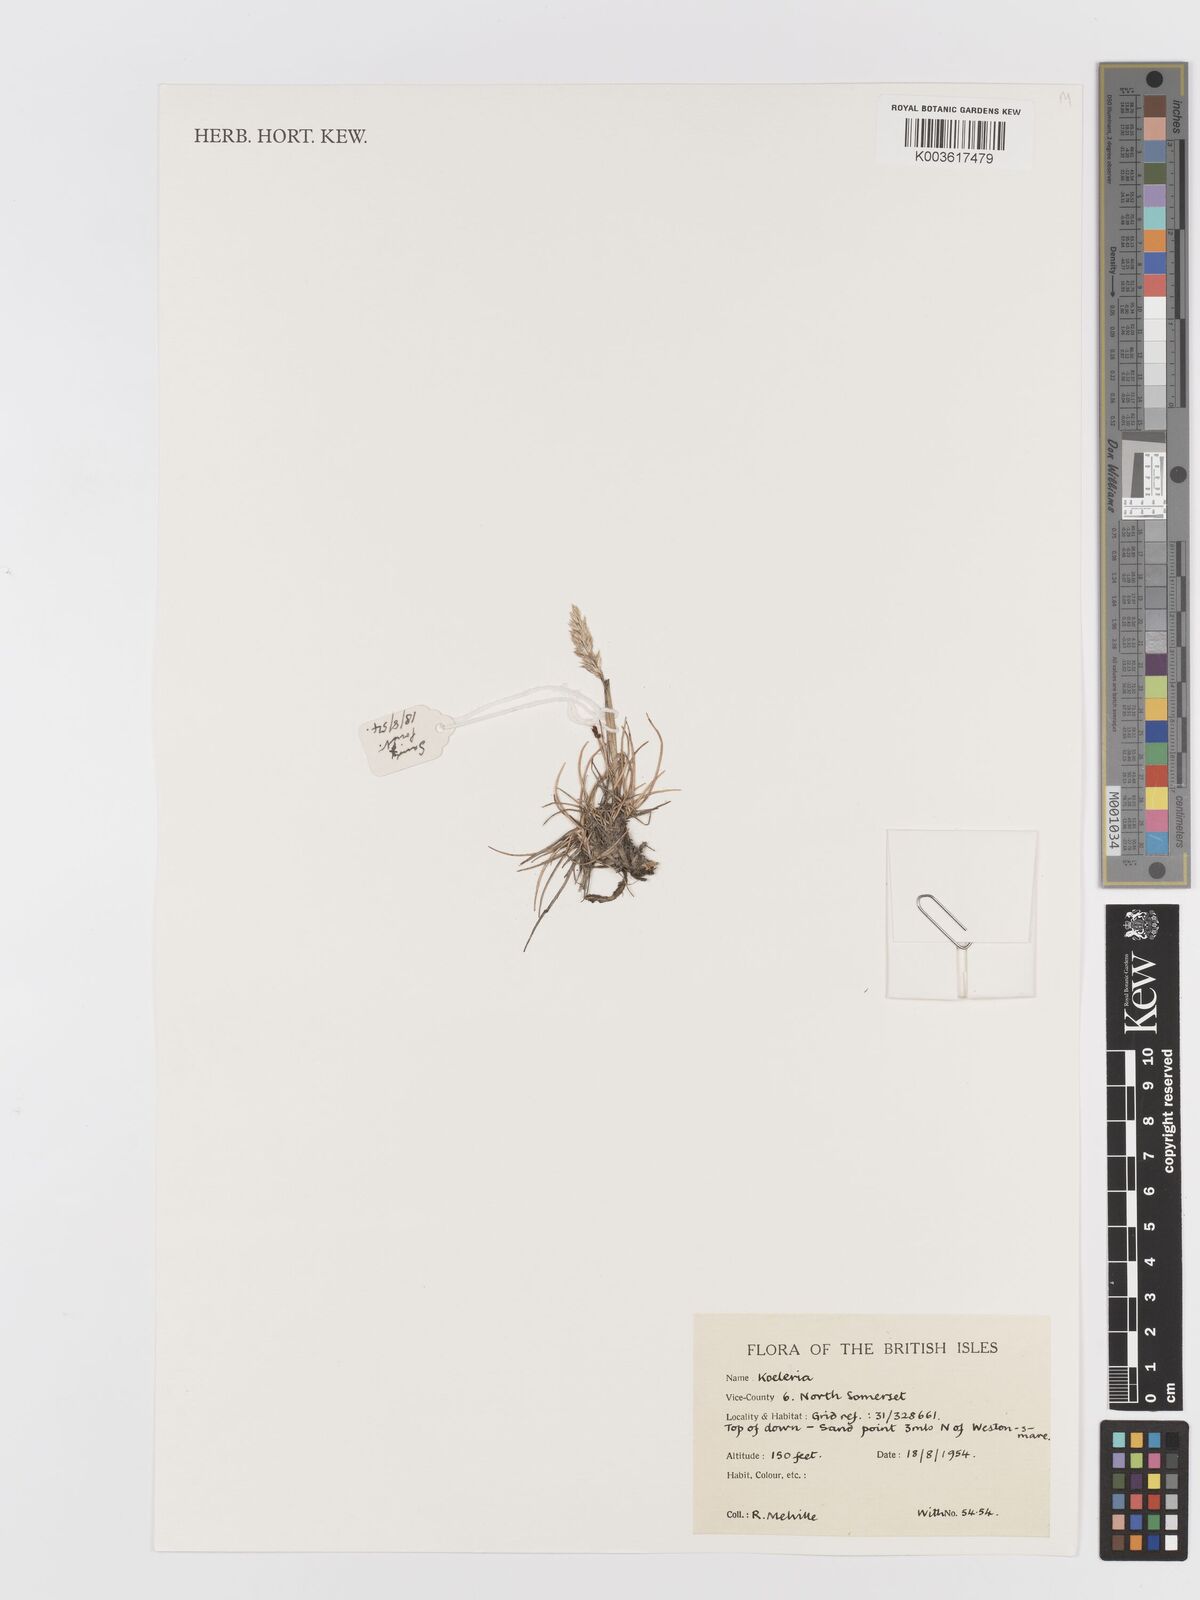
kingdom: Plantae
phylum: Tracheophyta
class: Liliopsida
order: Poales
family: Poaceae
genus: Koeleria
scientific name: Koeleria
